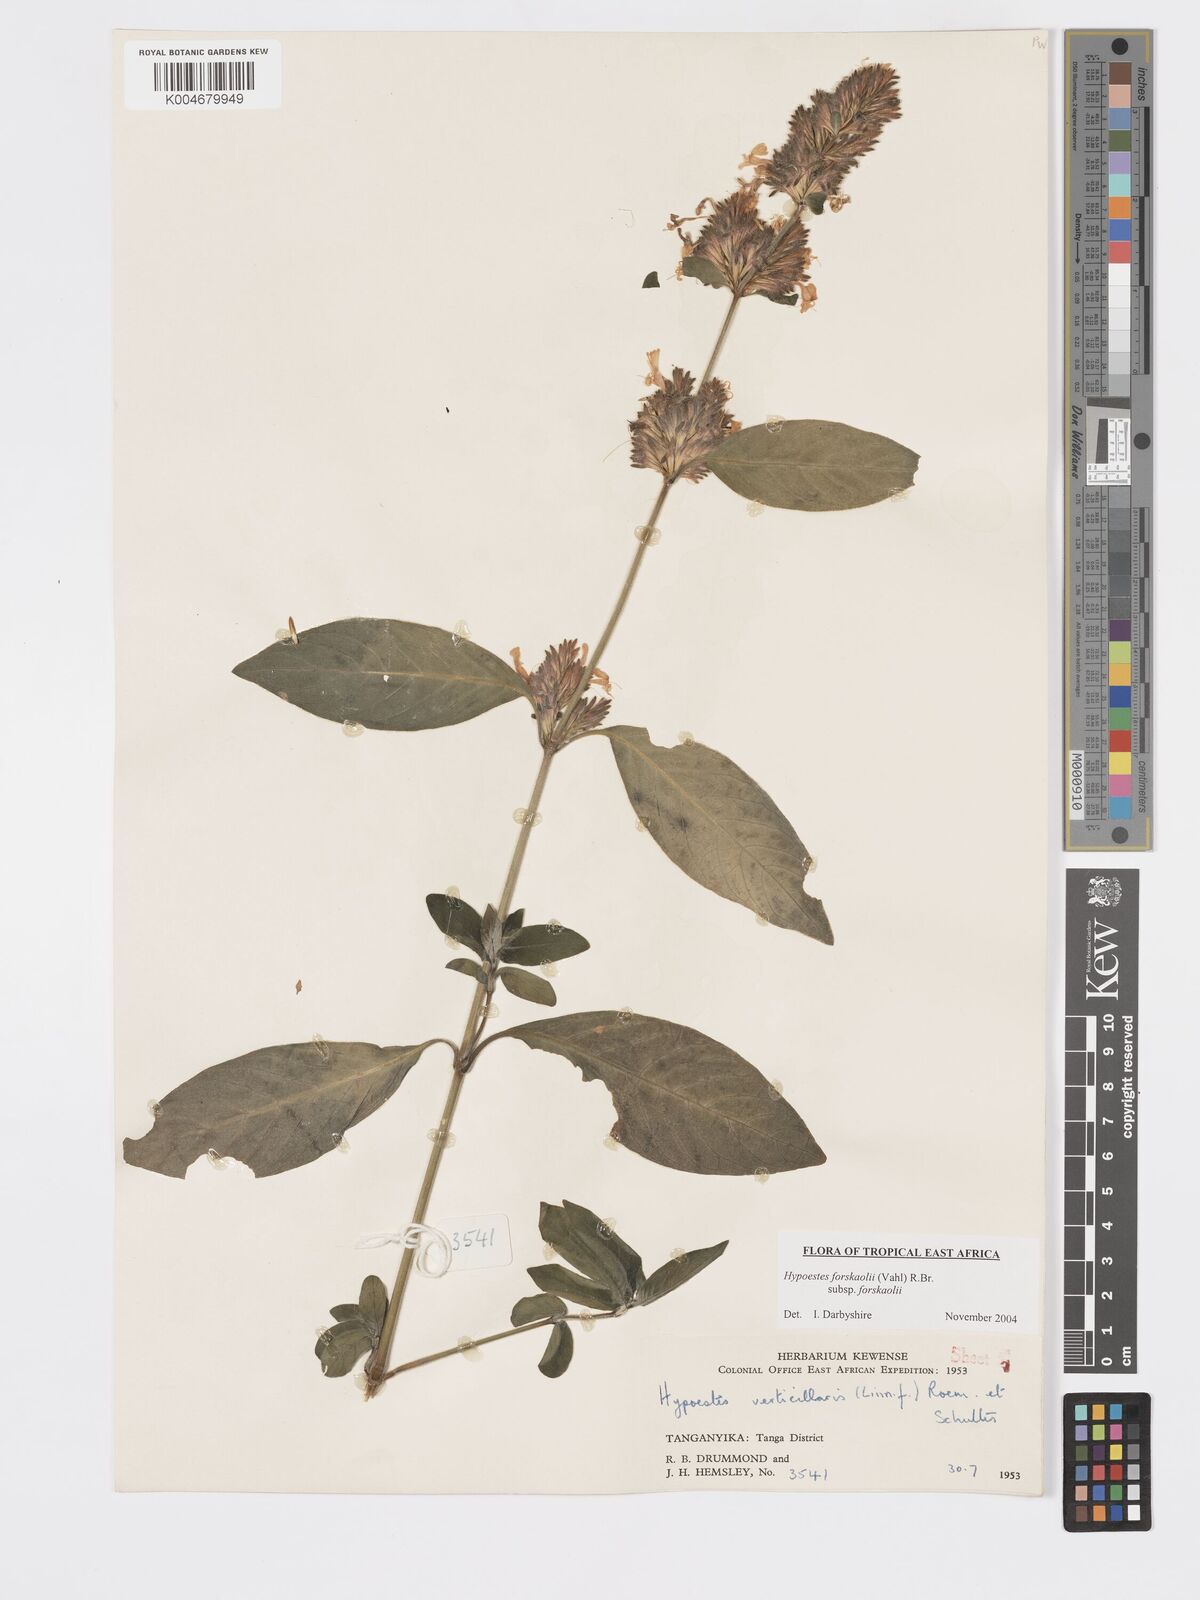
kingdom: Plantae
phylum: Tracheophyta
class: Magnoliopsida
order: Lamiales
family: Acanthaceae
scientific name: Acanthaceae
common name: Acanthaceae
